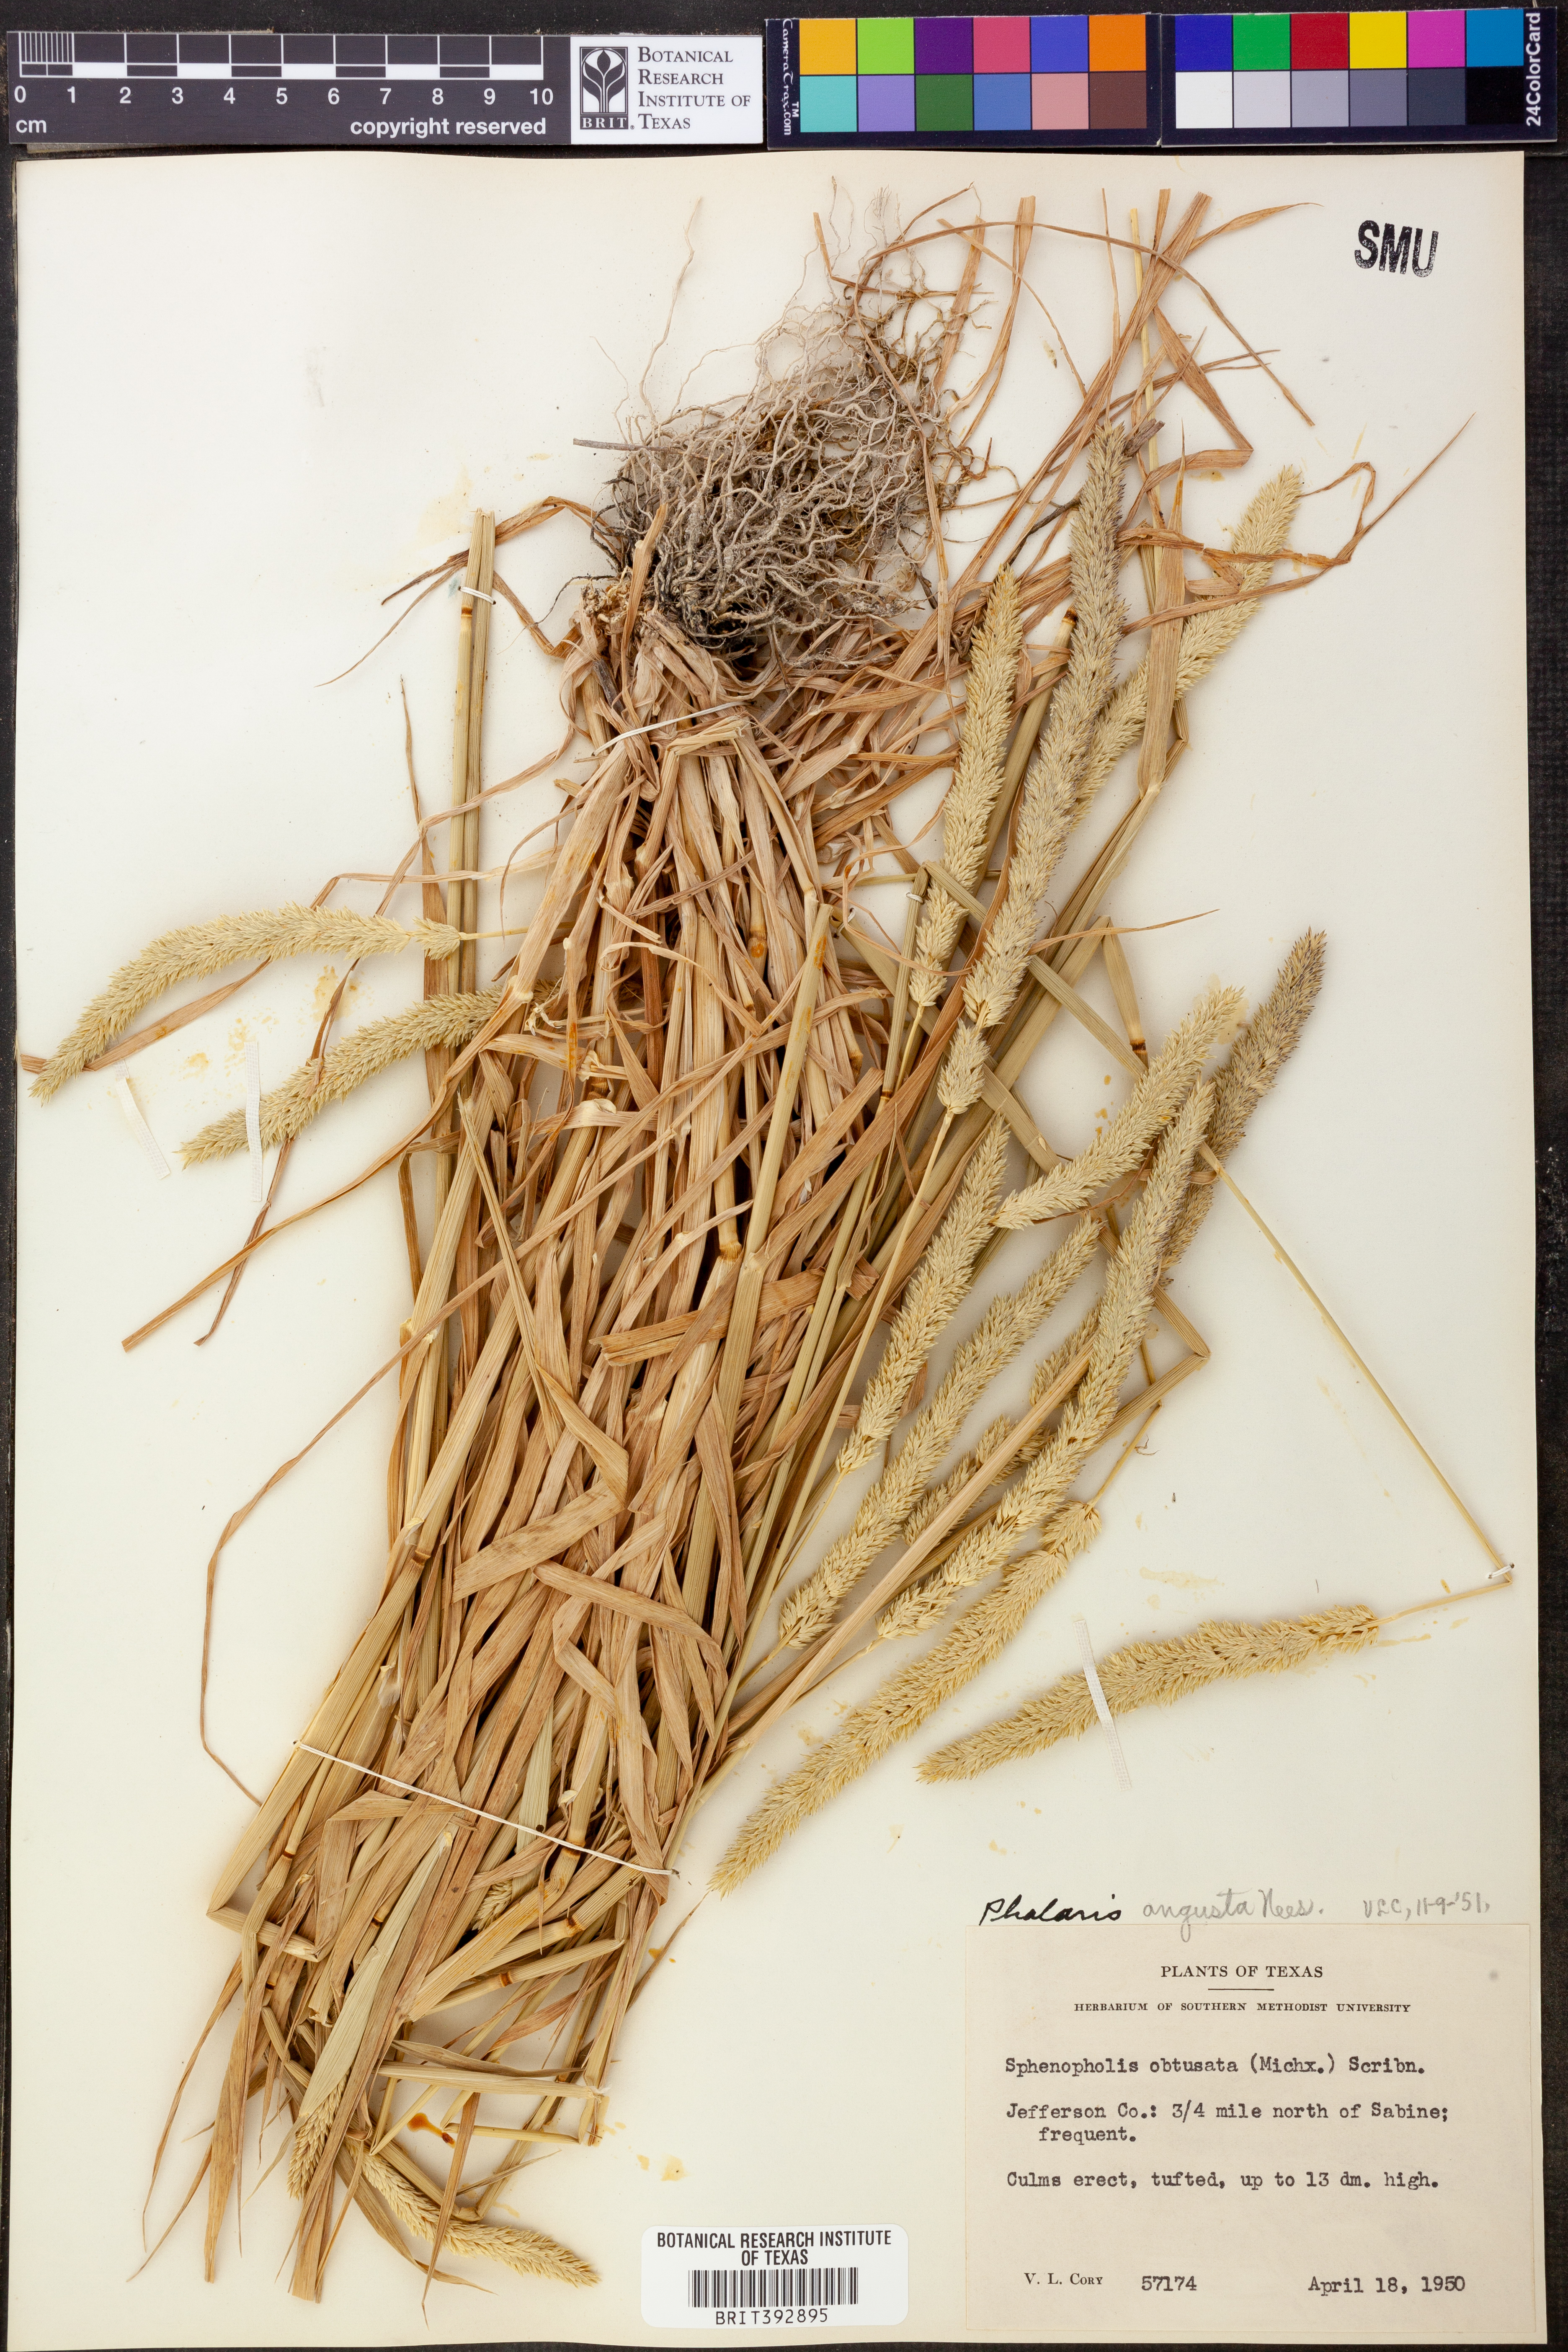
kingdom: Plantae
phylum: Tracheophyta
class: Liliopsida
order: Poales
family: Poaceae
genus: Sphenopholis
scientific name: Sphenopholis obtusata
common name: Prairie grass
